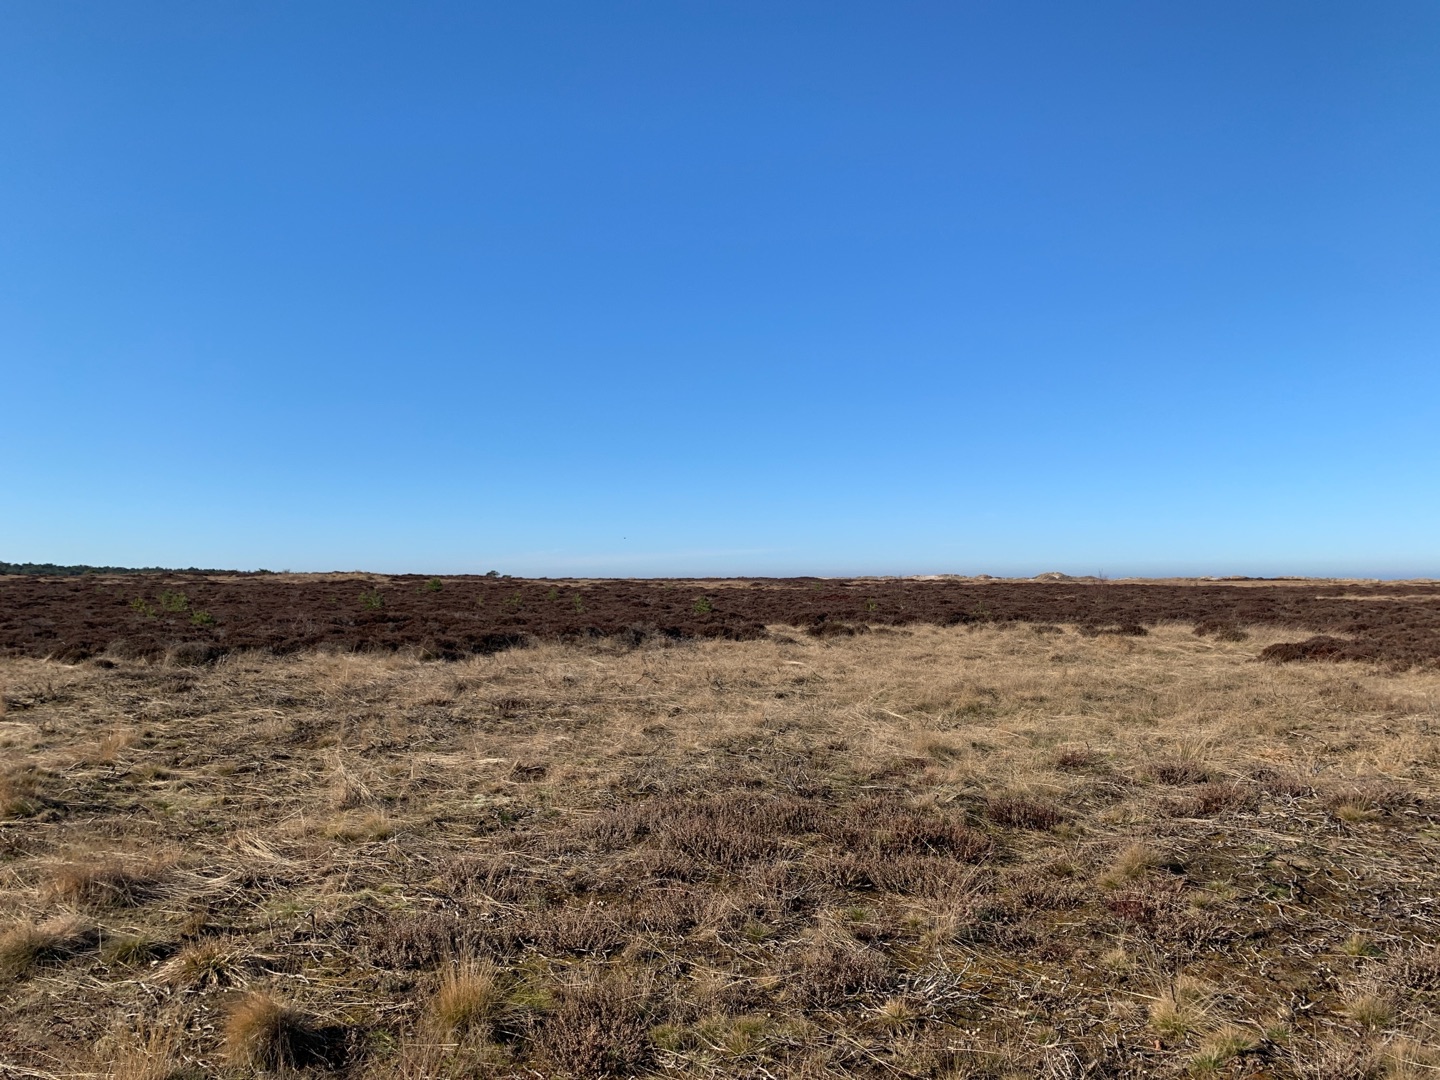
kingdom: Animalia
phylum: Chordata
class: Aves
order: Passeriformes
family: Alaudidae
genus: Alauda
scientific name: Alauda arvensis
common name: Sanglærke
